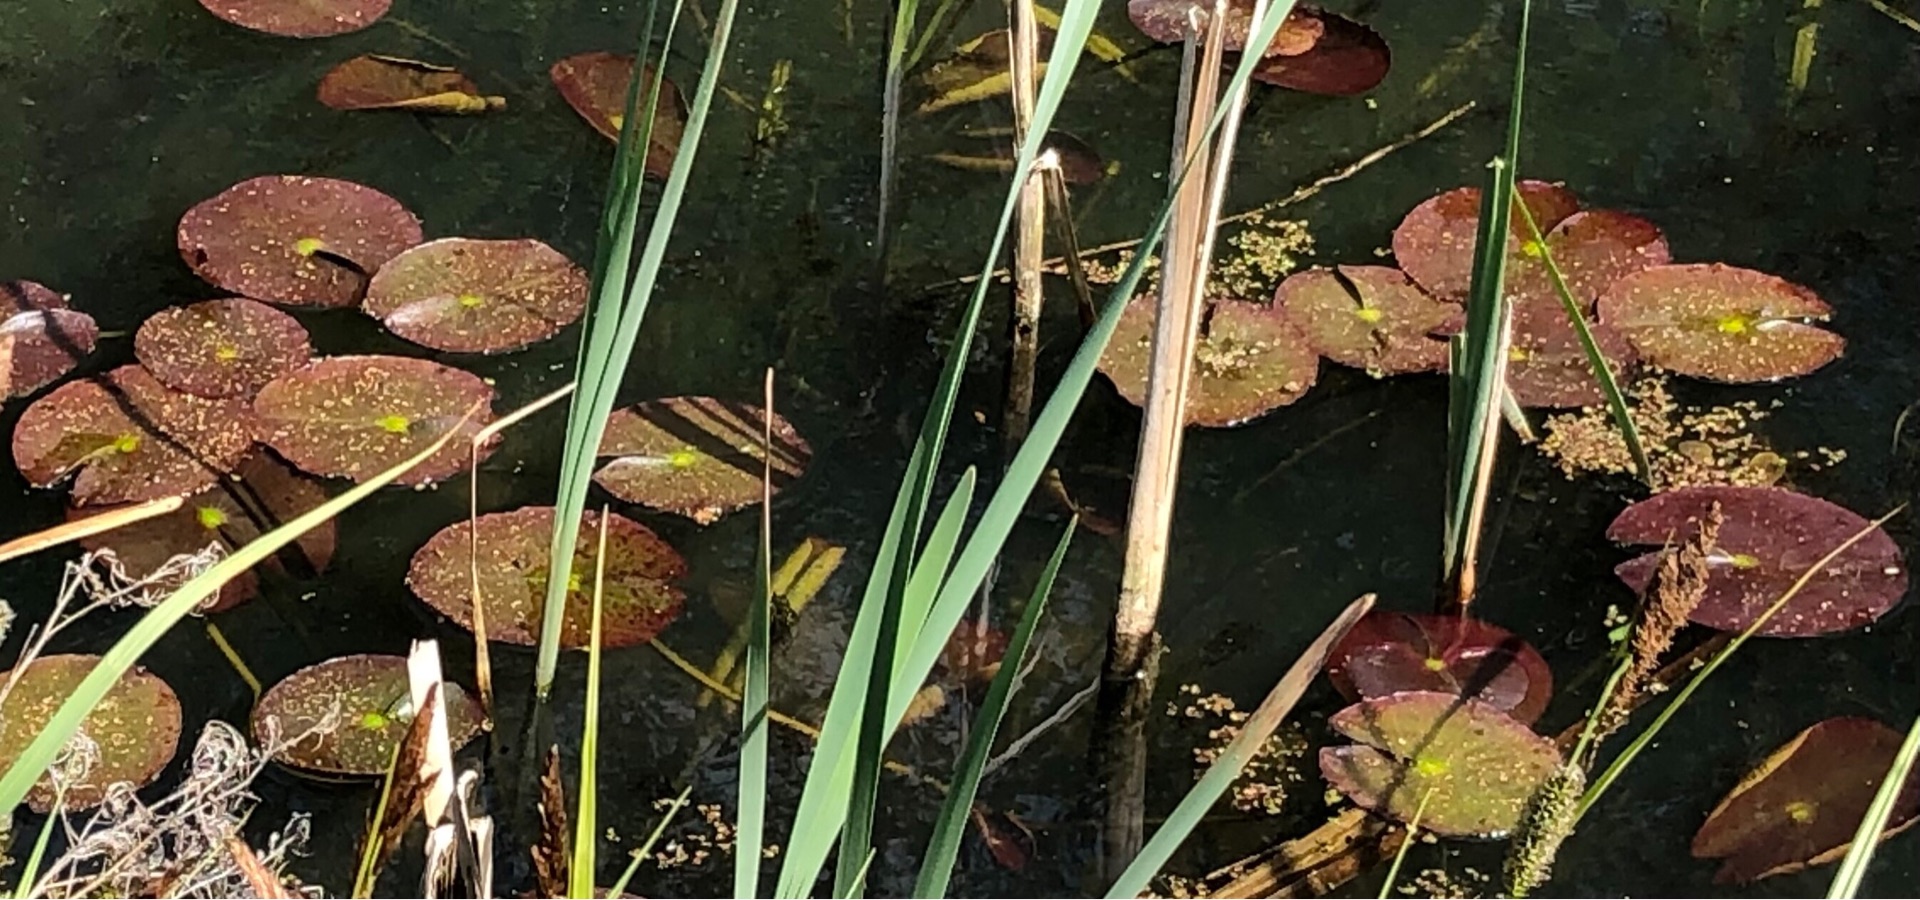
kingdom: Plantae
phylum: Tracheophyta
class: Magnoliopsida
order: Nymphaeales
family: Nymphaeaceae
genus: Nymphaea
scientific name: Nymphaea alba
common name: Hvid åkande
